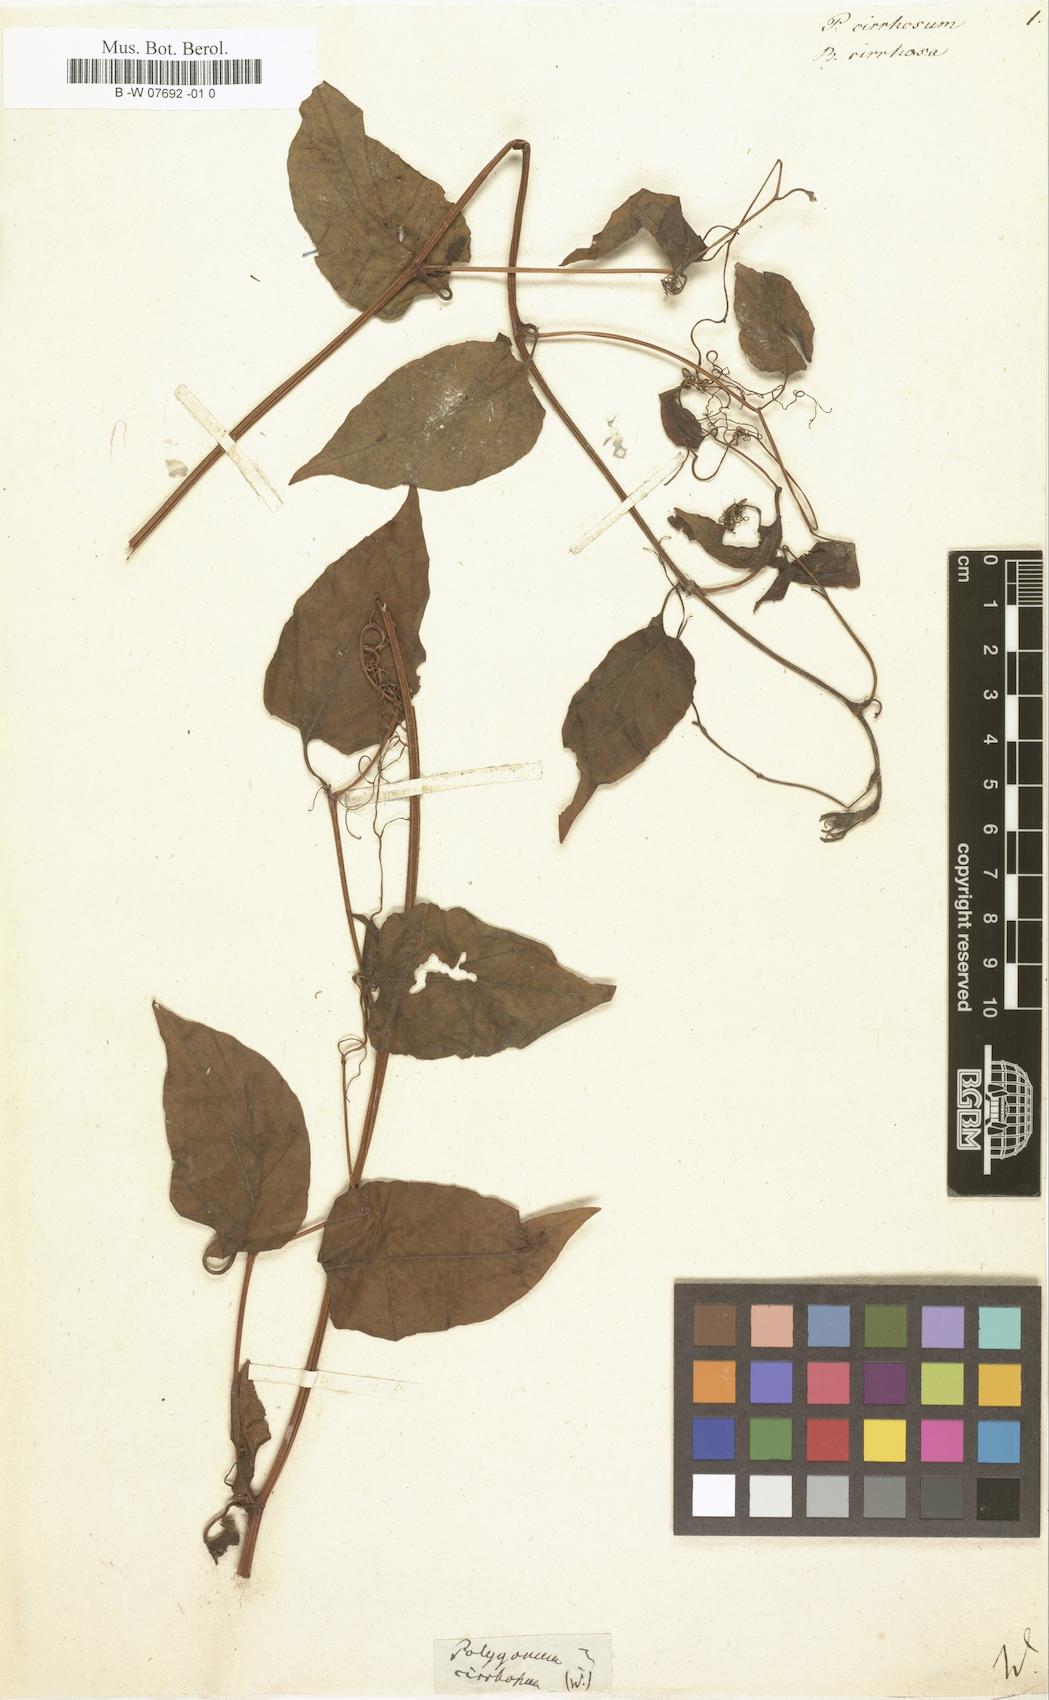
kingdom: Plantae
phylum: Tracheophyta
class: Magnoliopsida
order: Caryophyllales
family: Polygonaceae
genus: Antigonon
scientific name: Antigonon leptopus
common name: Coral vine
